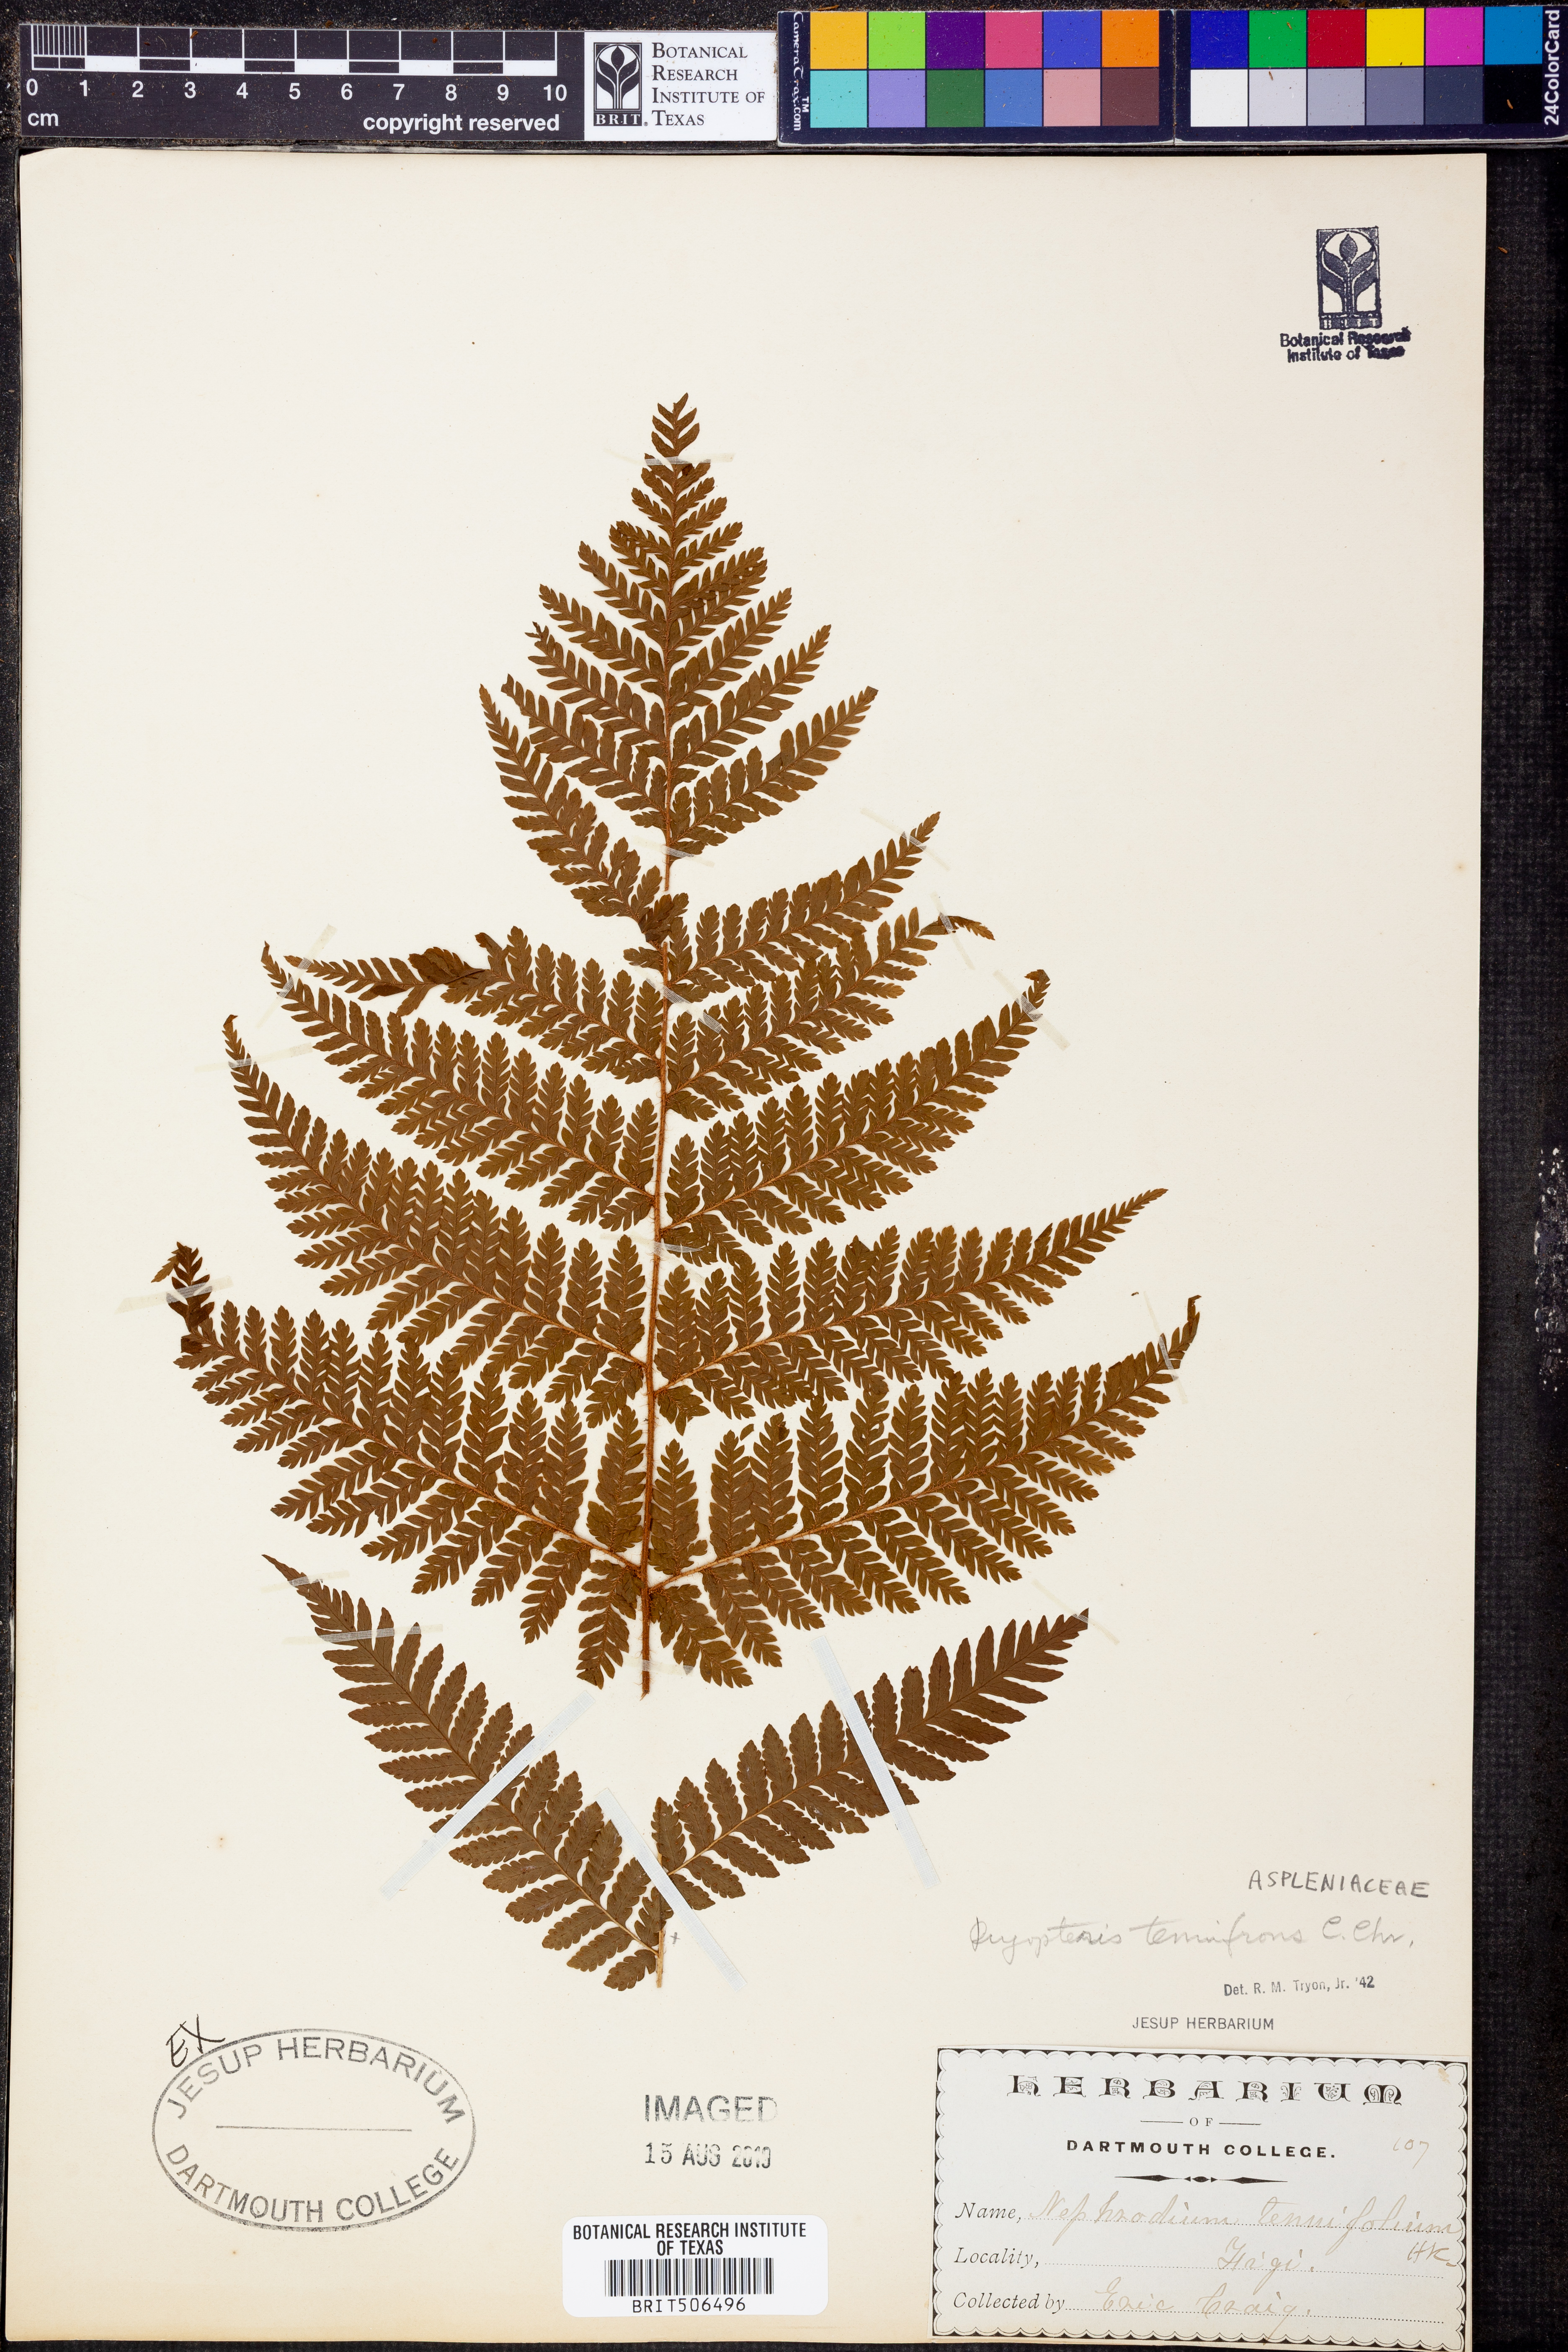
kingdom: Plantae
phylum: Tracheophyta
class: Polypodiopsida
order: Polypodiales
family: Dryopteridaceae
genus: Ctenitis
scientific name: Ctenitis fijiensis
